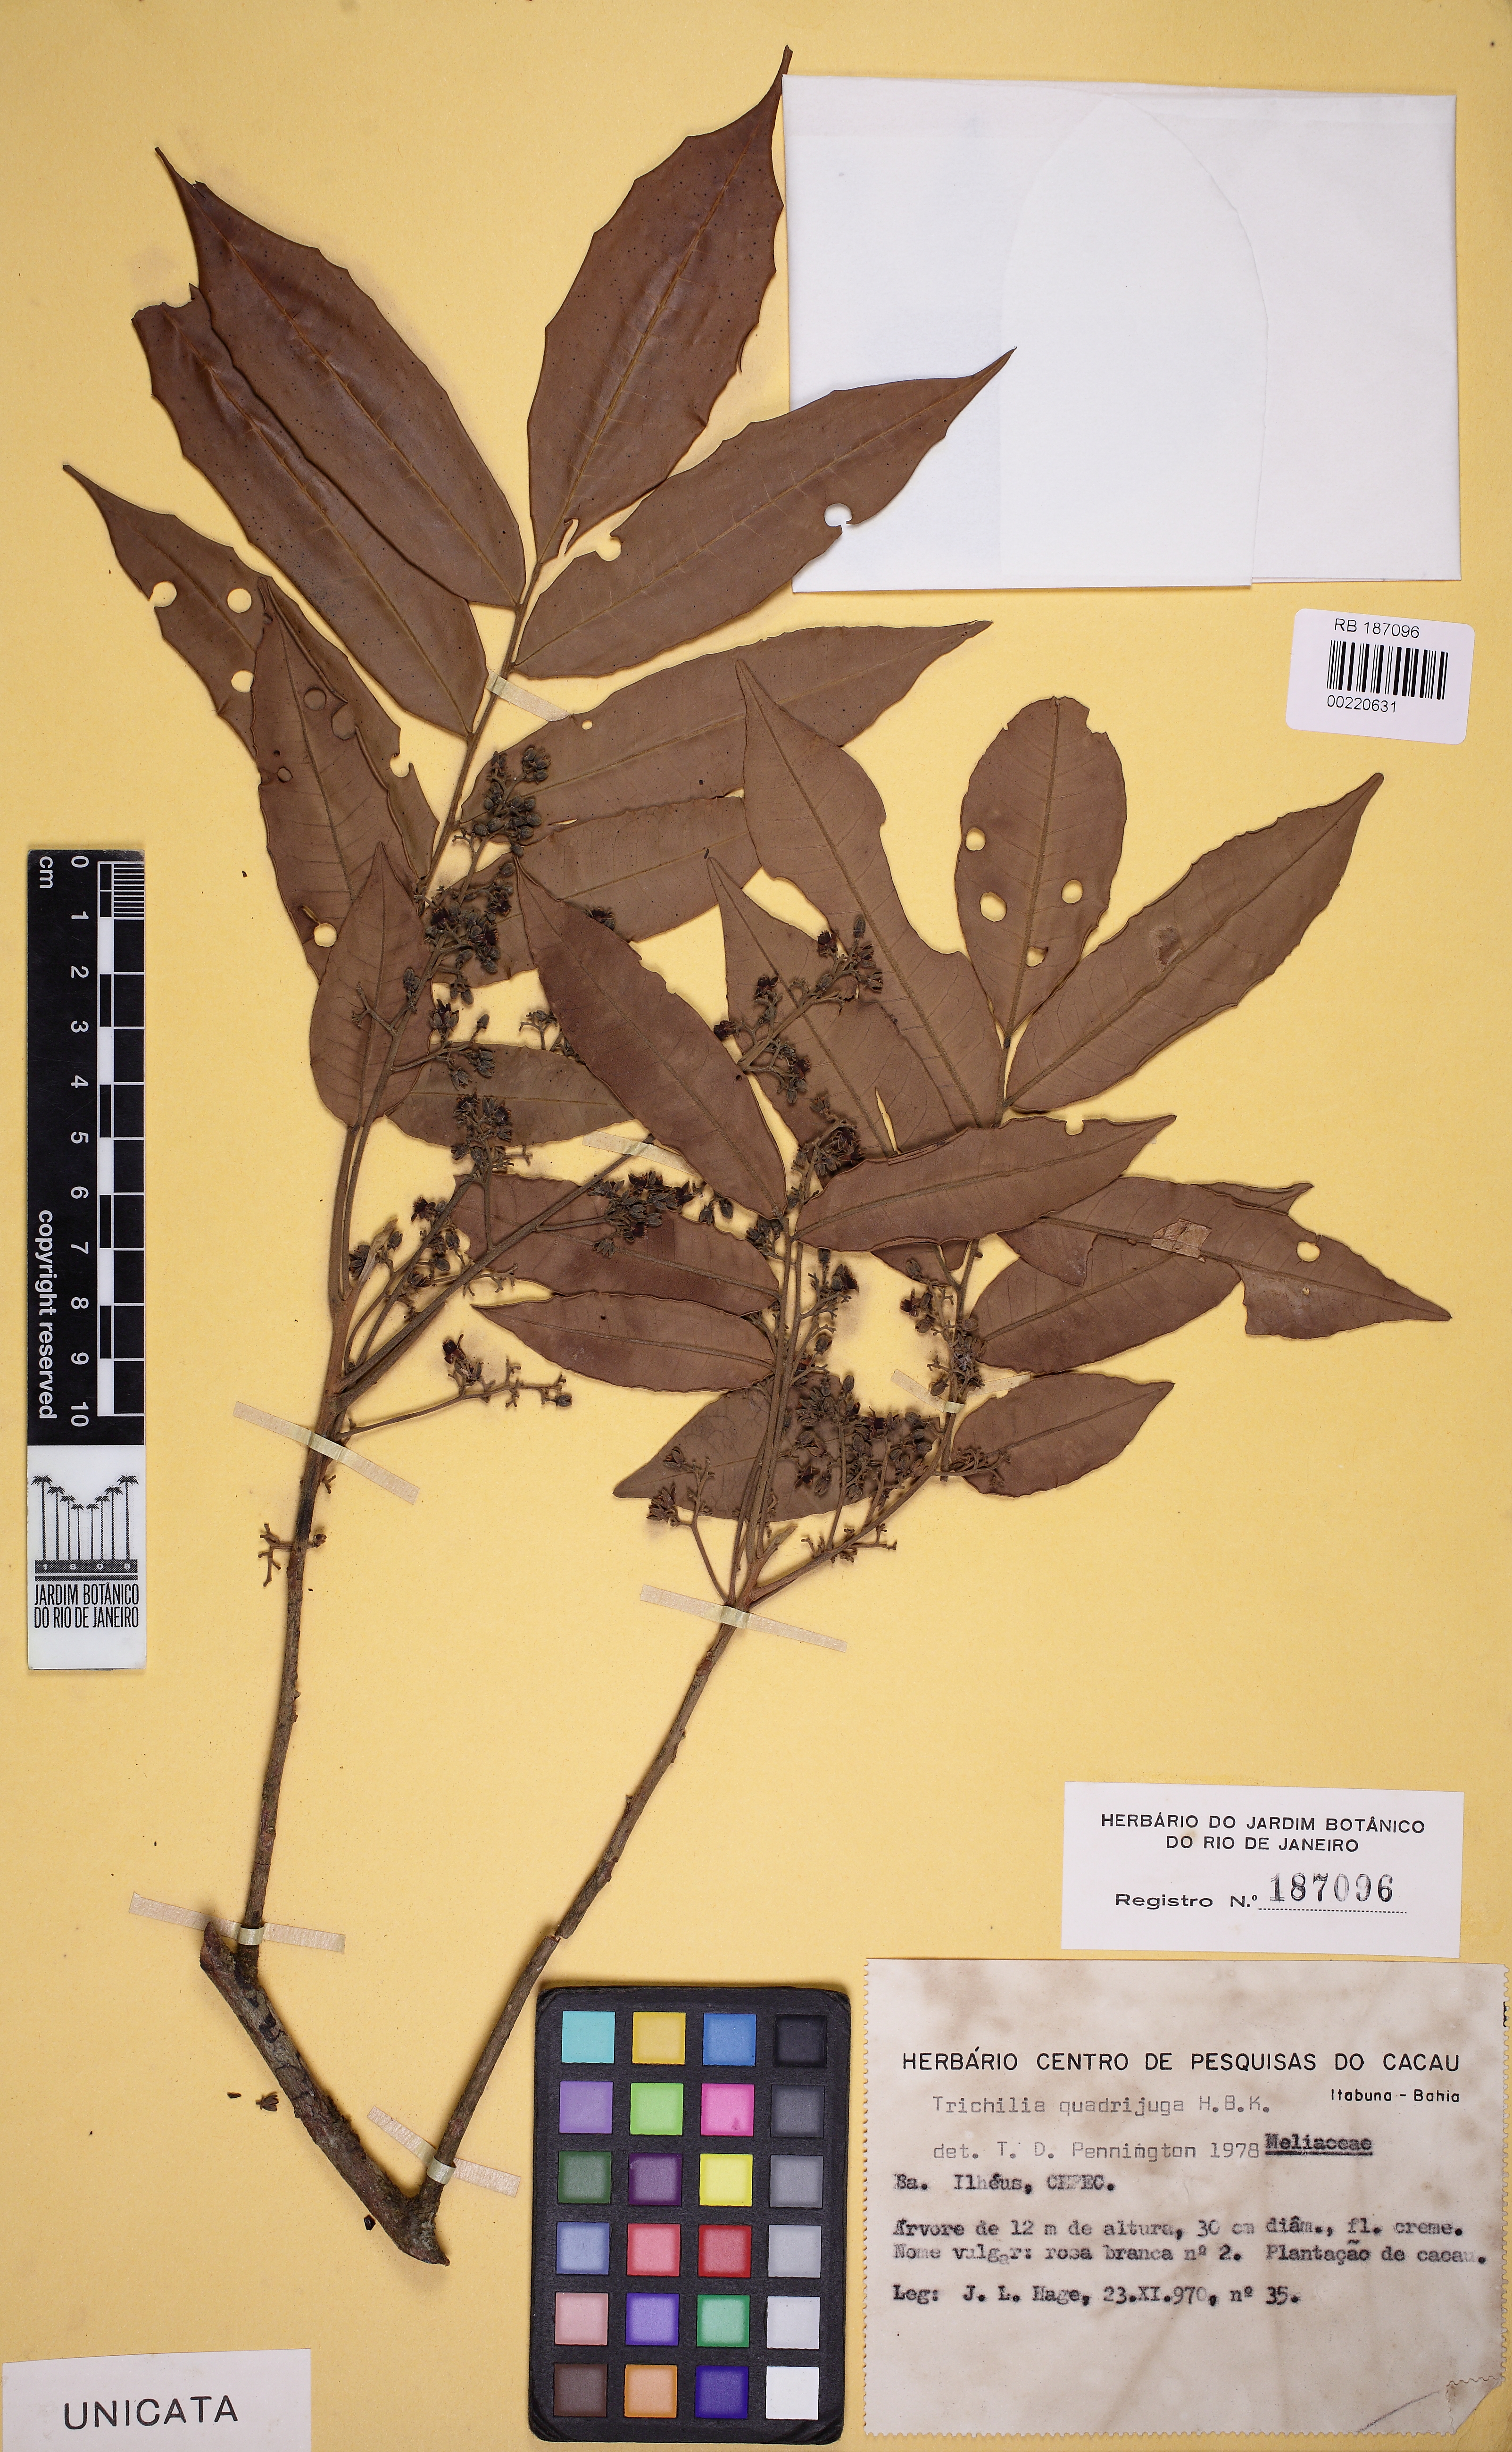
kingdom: Plantae
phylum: Tracheophyta
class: Magnoliopsida
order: Sapindales
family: Meliaceae
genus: Trichilia
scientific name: Trichilia quadrijuga
